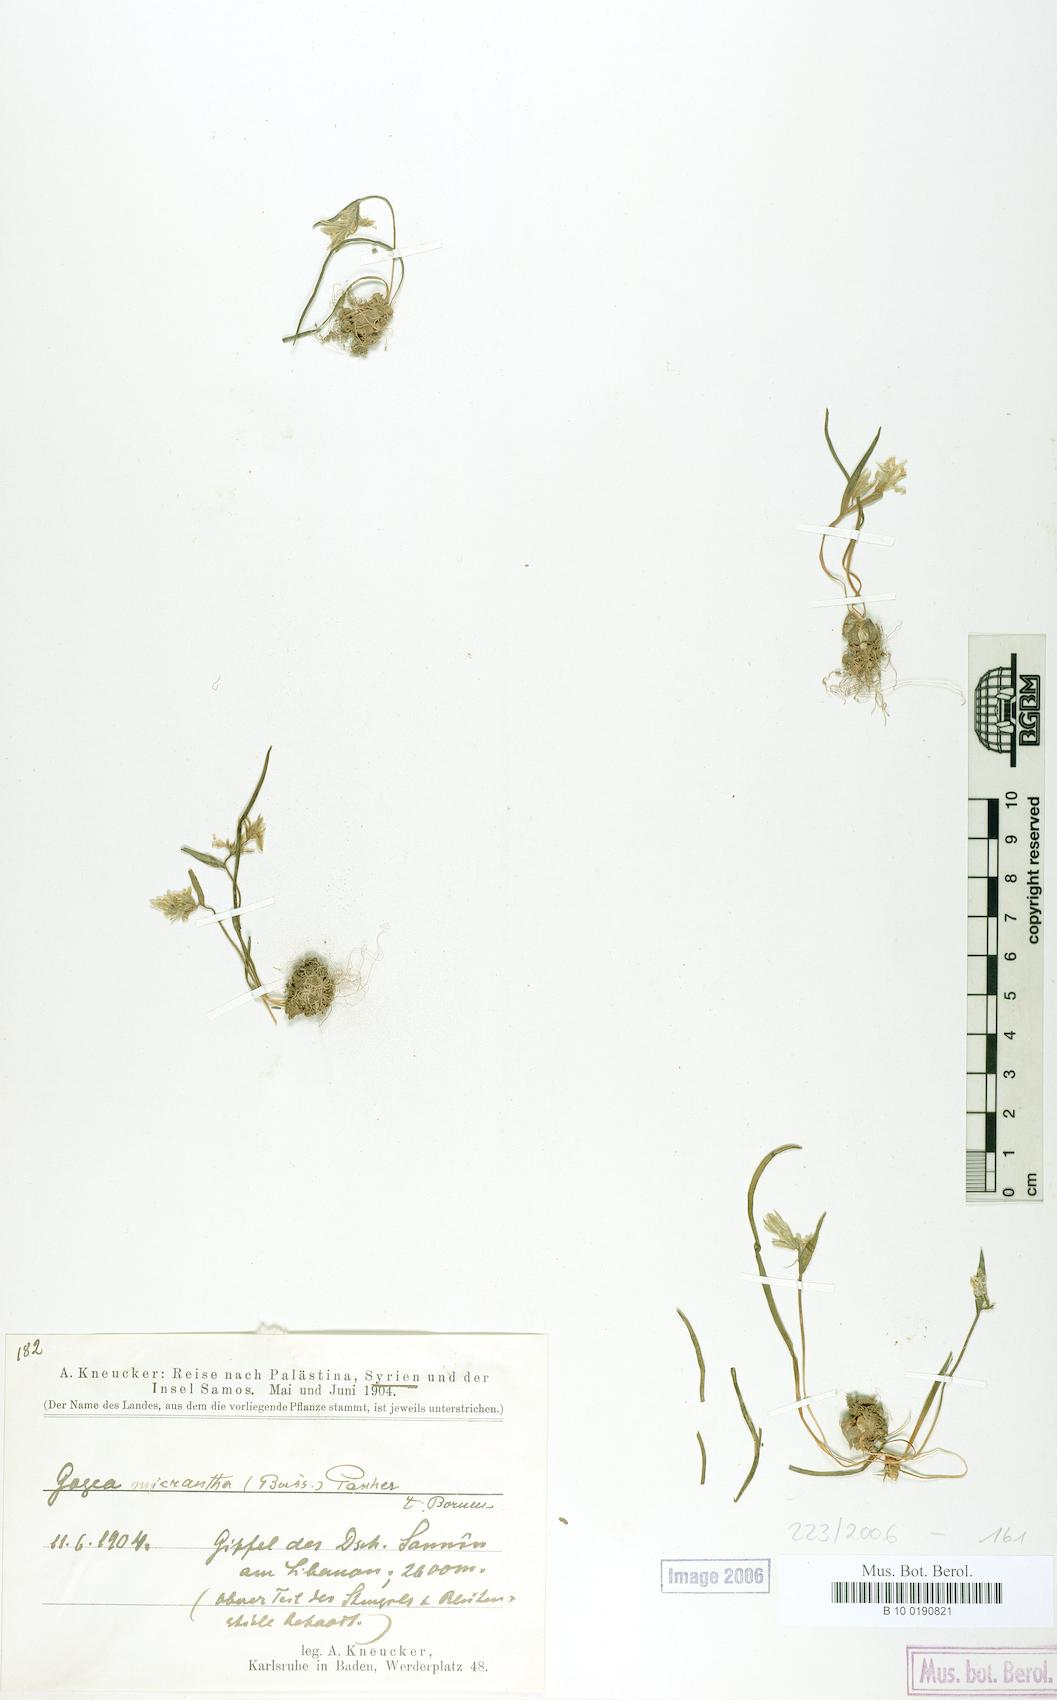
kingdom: Plantae
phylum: Tracheophyta
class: Liliopsida
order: Liliales
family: Liliaceae
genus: Gagea
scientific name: Gagea micrantha
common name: Small-flowered gagea
